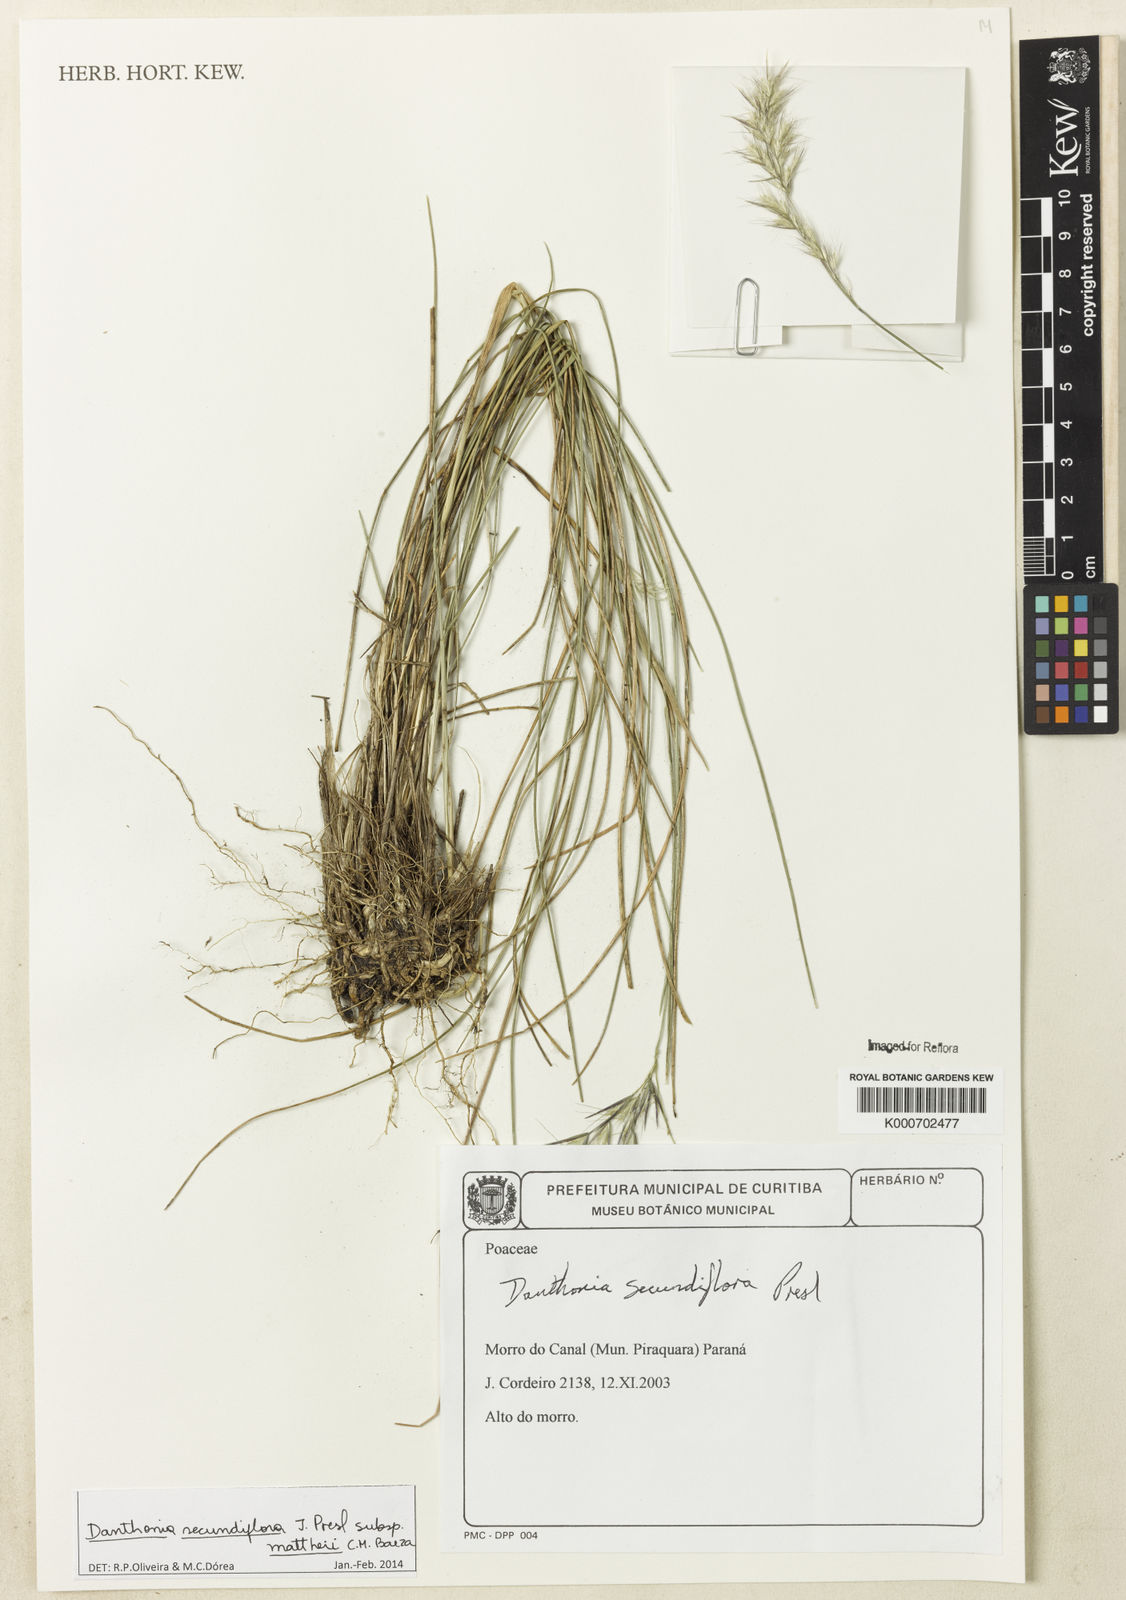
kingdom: Plantae
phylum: Tracheophyta
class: Liliopsida
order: Poales
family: Poaceae
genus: Danthonia
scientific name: Danthonia secundiflora
